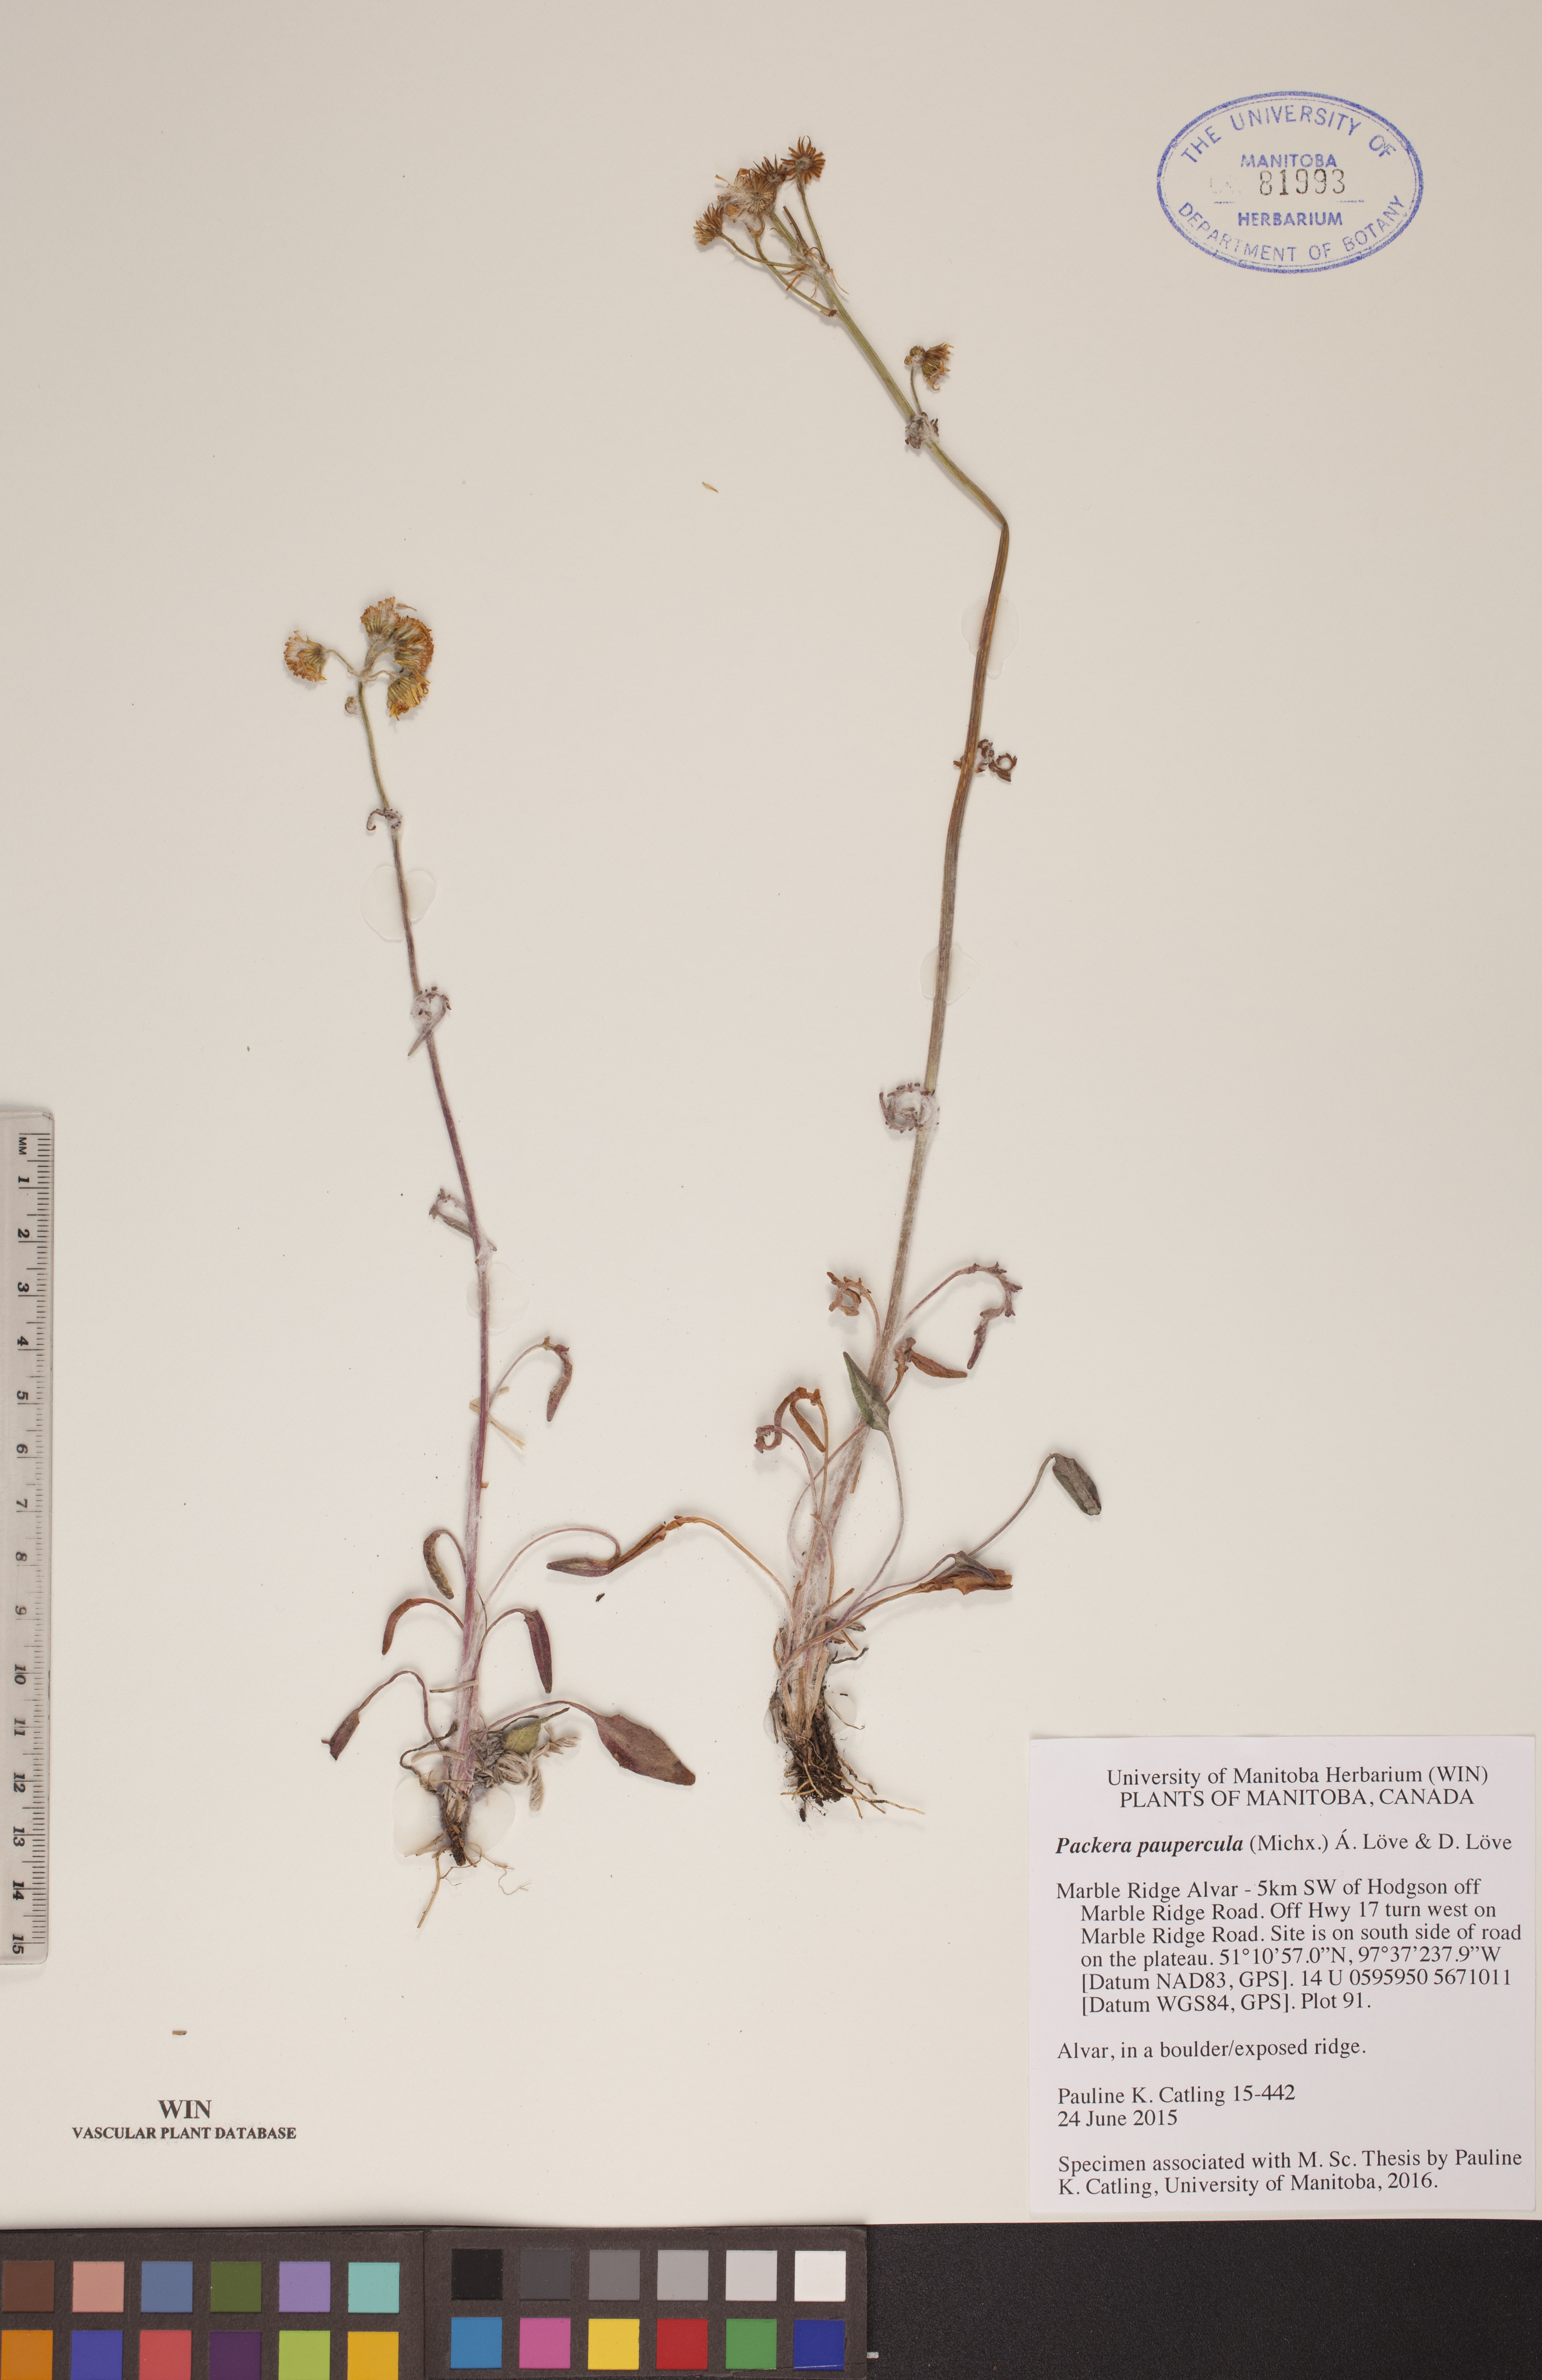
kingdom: Plantae
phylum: Tracheophyta
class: Magnoliopsida
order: Asterales
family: Asteraceae
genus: Packera
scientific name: Packera paupercula
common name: Balsam groundsel
